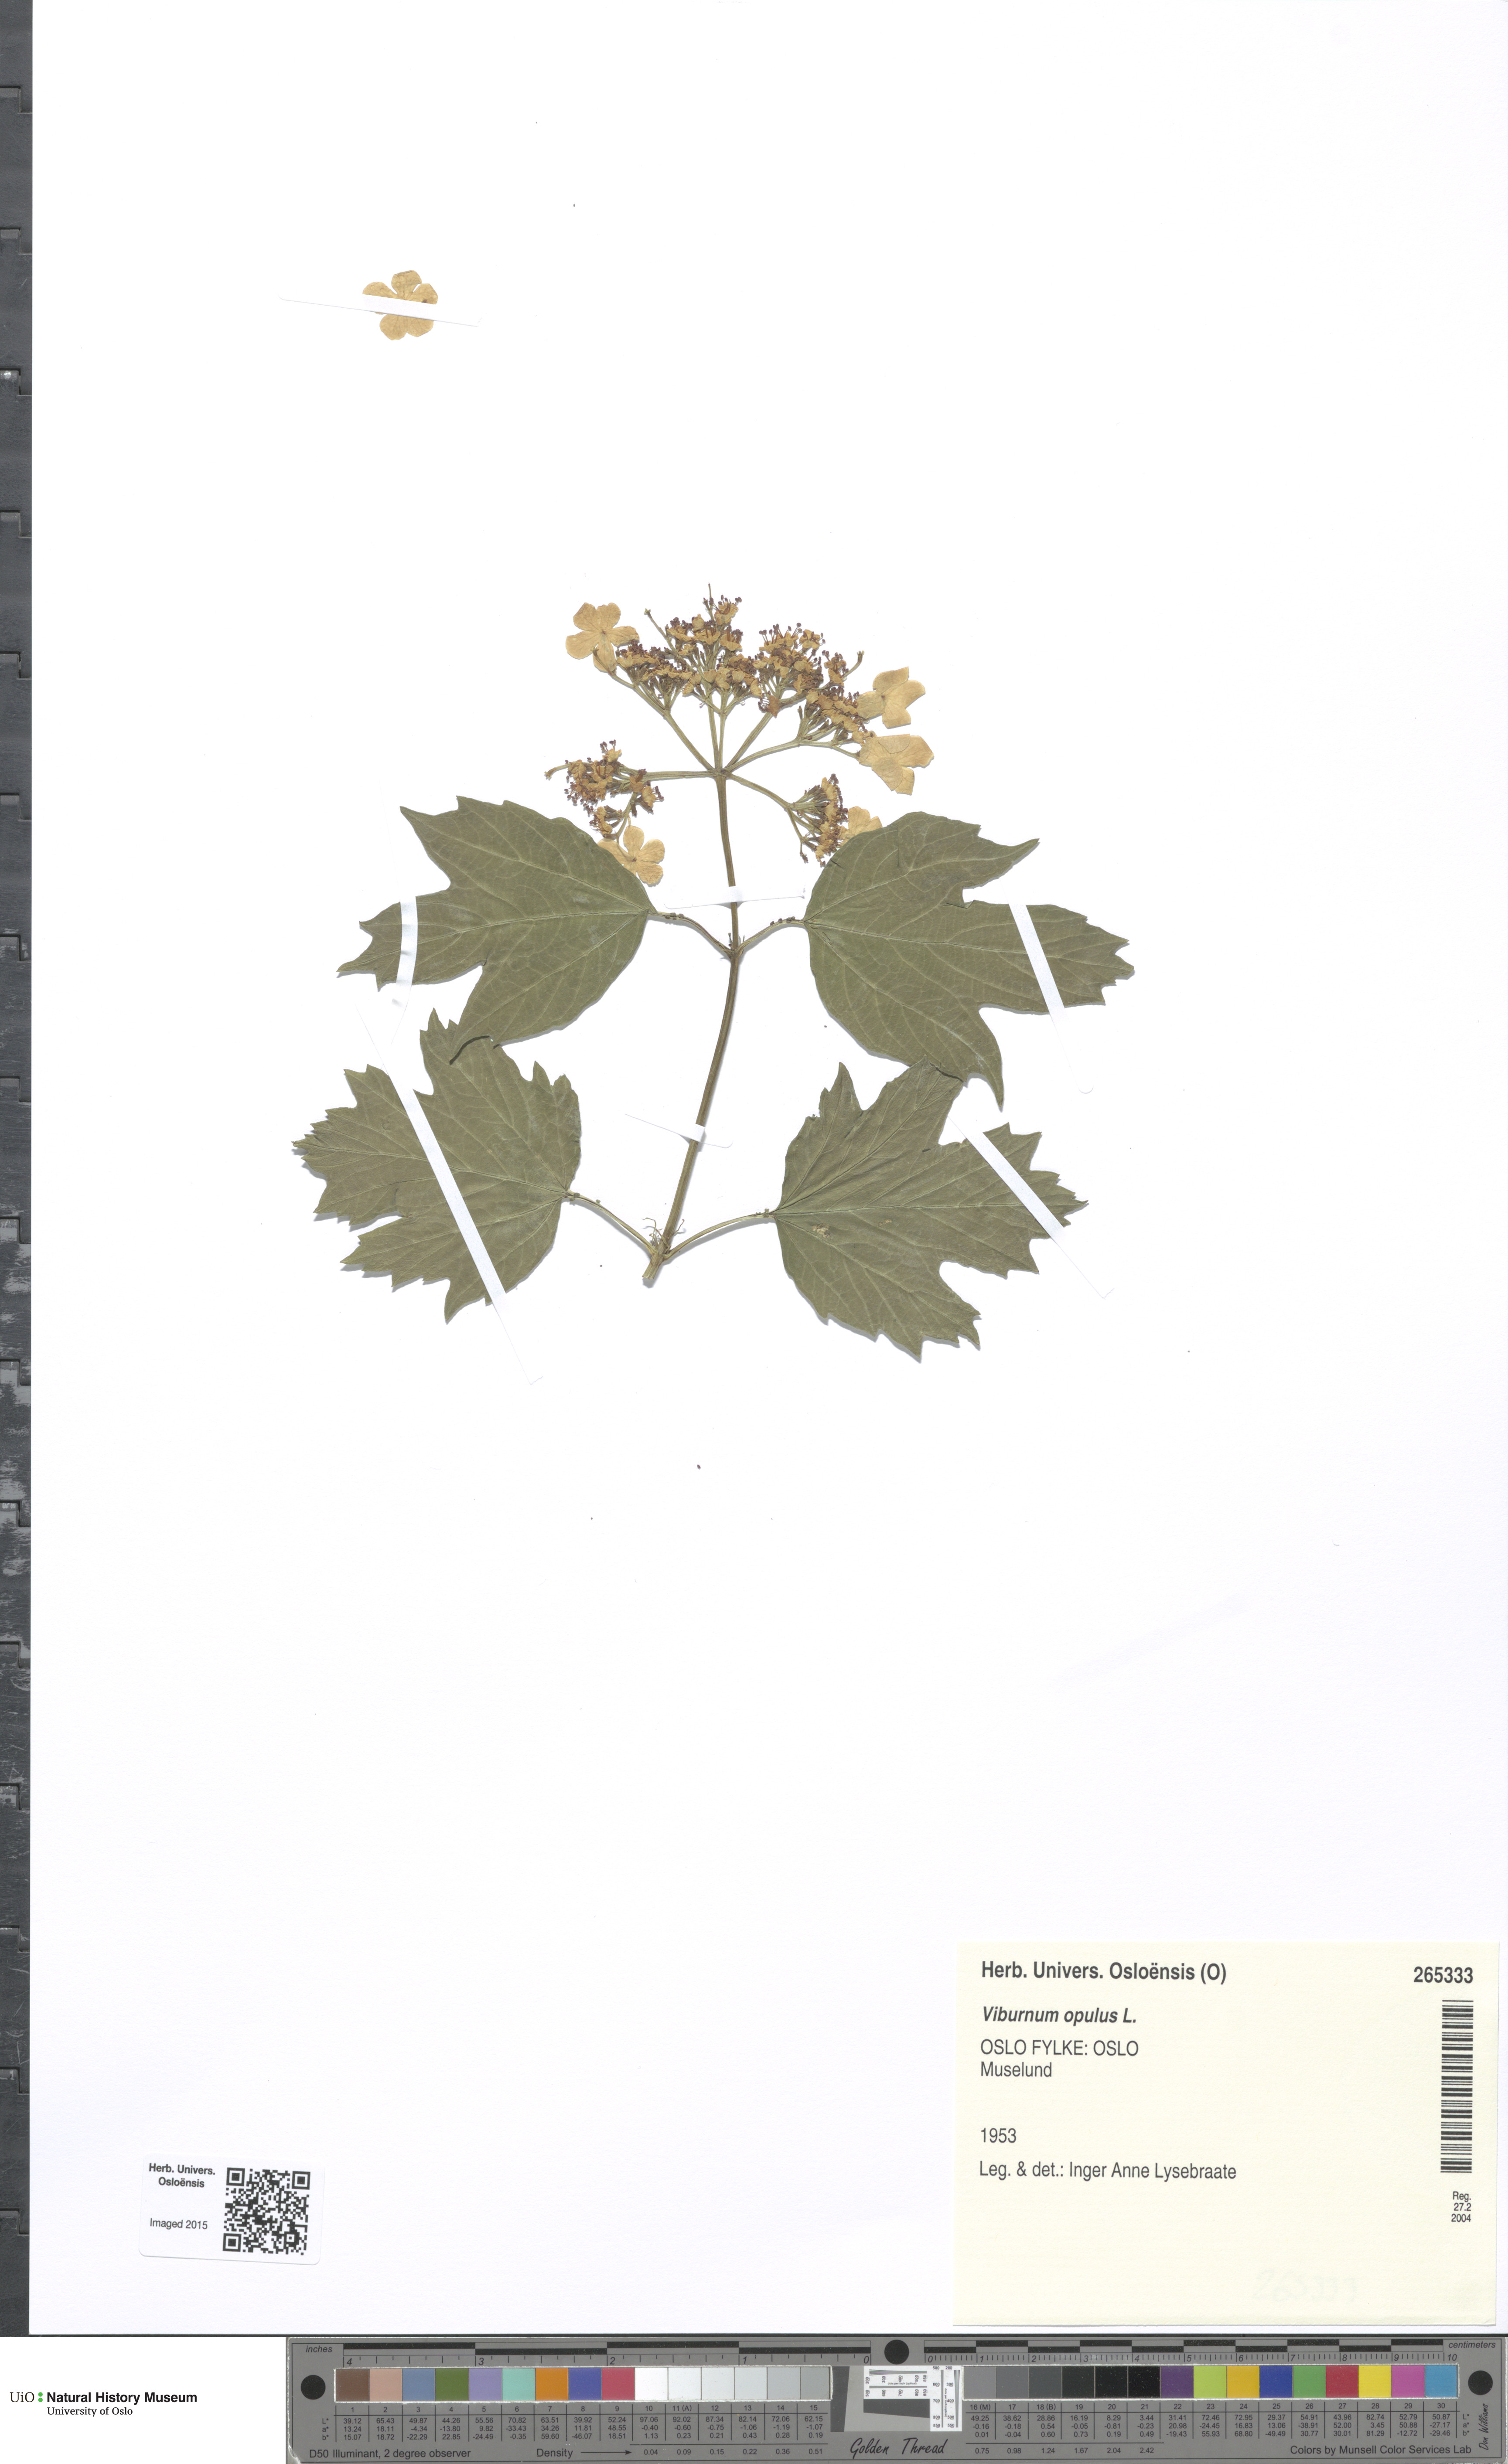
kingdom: Plantae
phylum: Tracheophyta
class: Magnoliopsida
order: Dipsacales
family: Viburnaceae
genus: Viburnum
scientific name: Viburnum opulus
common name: Guelder-rose
